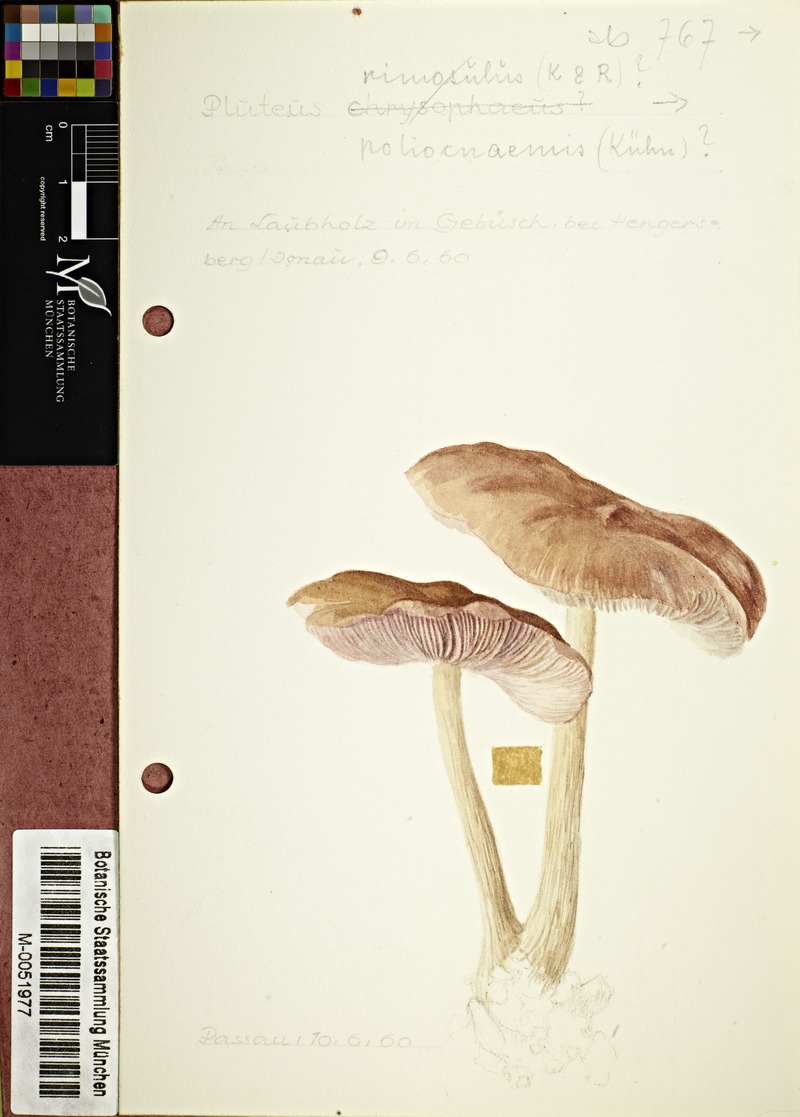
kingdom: Fungi
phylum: Basidiomycota
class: Agaricomycetes
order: Agaricales
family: Pluteaceae
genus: Pluteus
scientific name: Pluteus poliocnemis
